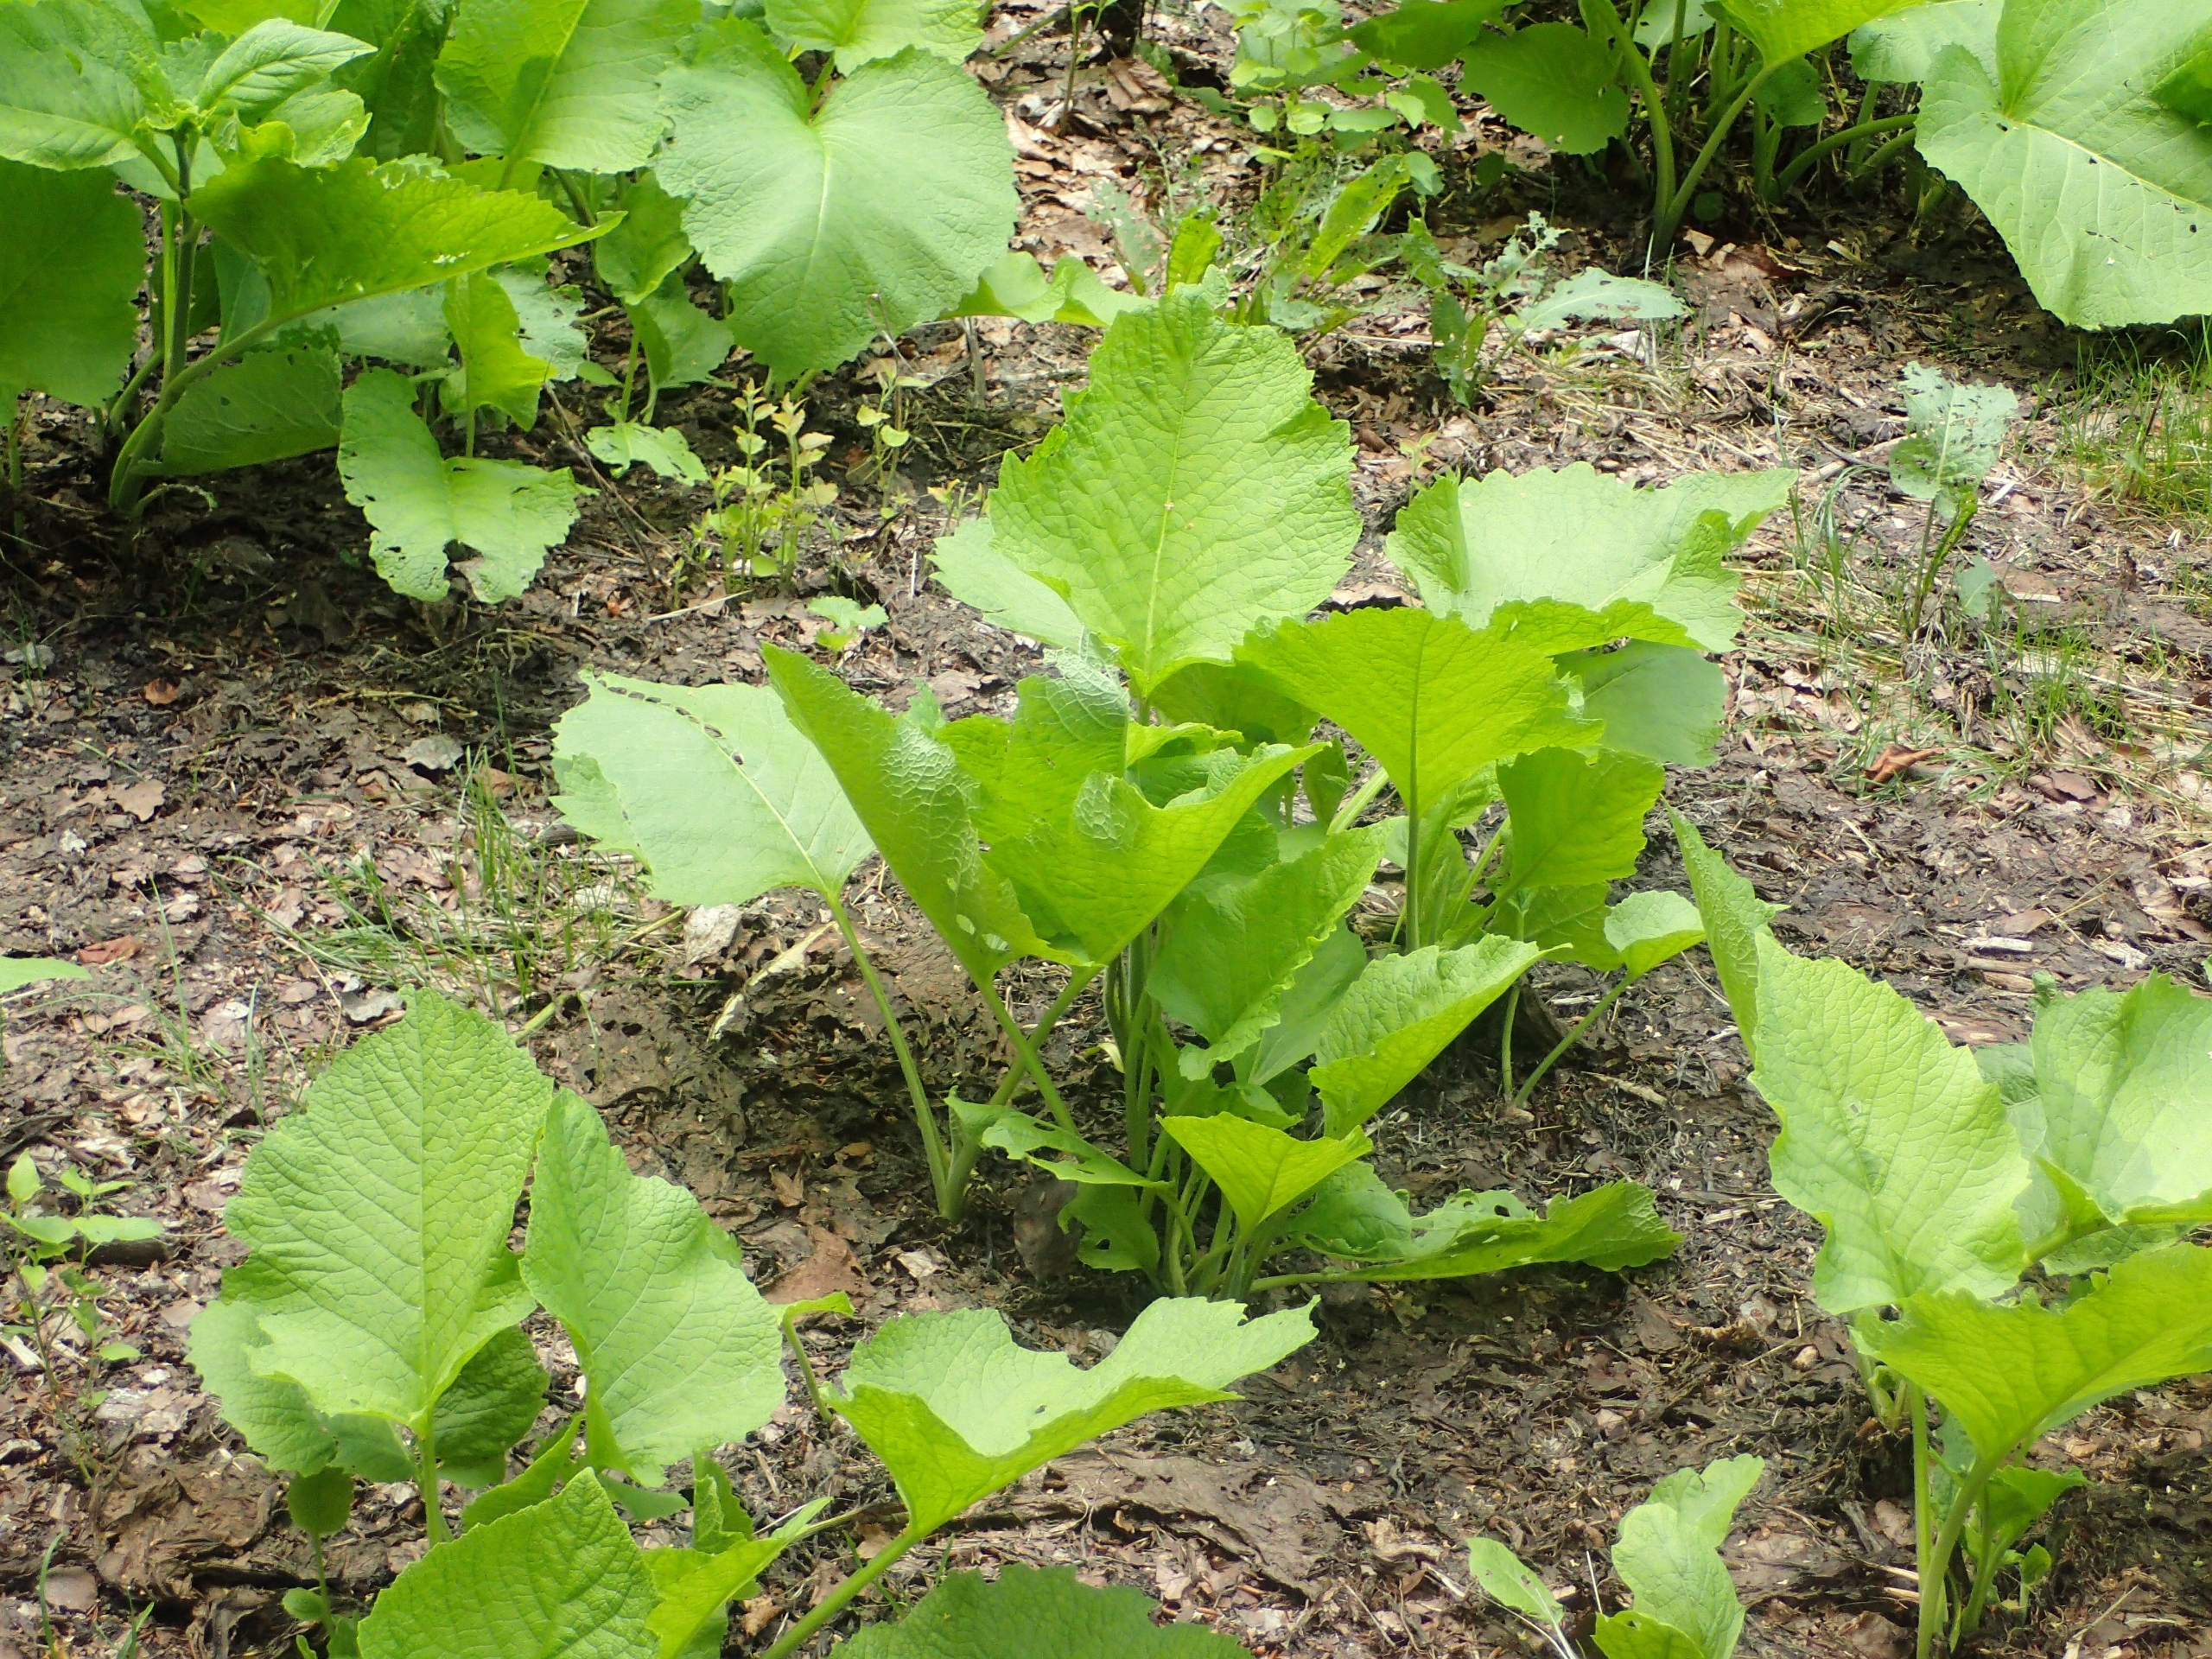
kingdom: Plantae
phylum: Tracheophyta
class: Magnoliopsida
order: Asterales
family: Asteraceae
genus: Telekia
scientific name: Telekia speciosa
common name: Tusindstråle
